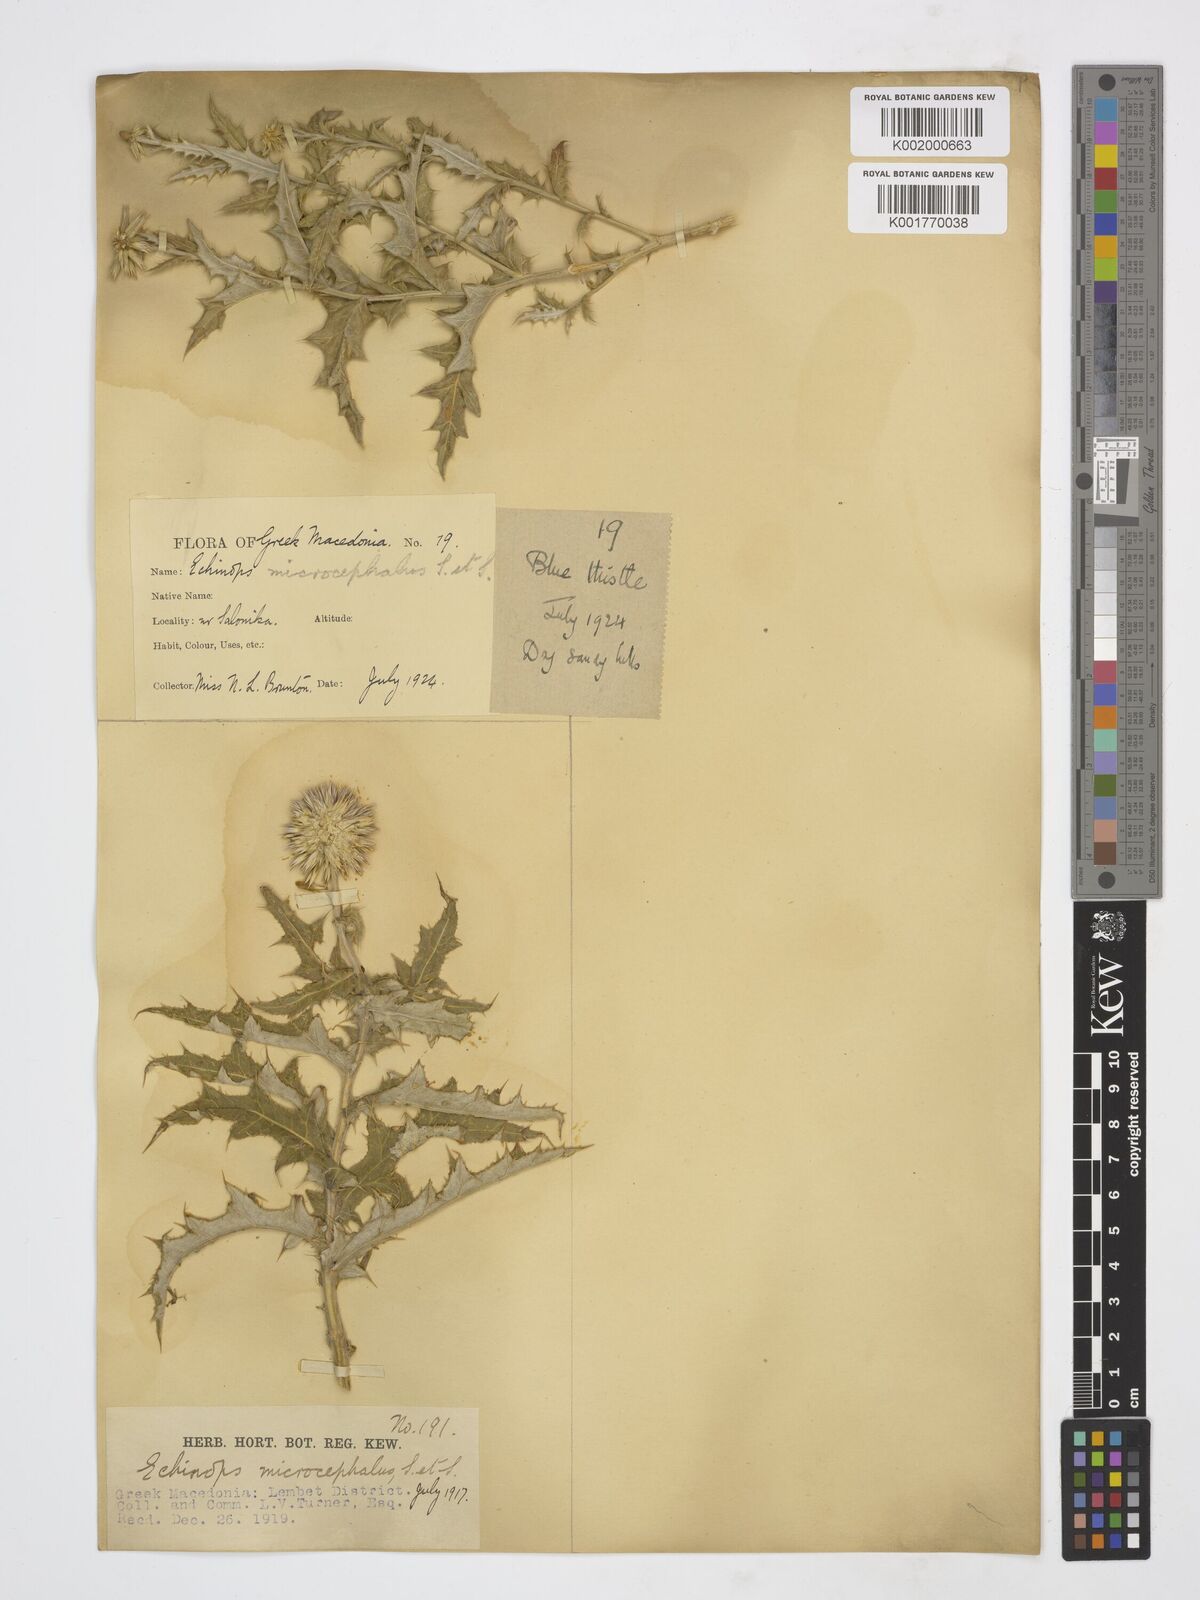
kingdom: Plantae
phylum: Tracheophyta
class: Magnoliopsida
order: Asterales
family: Asteraceae
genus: Echinops
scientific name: Echinops microcephalus
